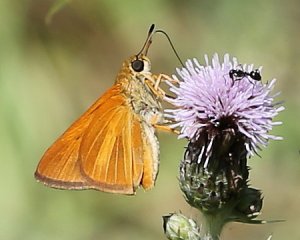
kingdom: Animalia
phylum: Arthropoda
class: Insecta
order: Lepidoptera
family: Hesperiidae
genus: Euphyes
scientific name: Euphyes dion
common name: Dion Skipper
